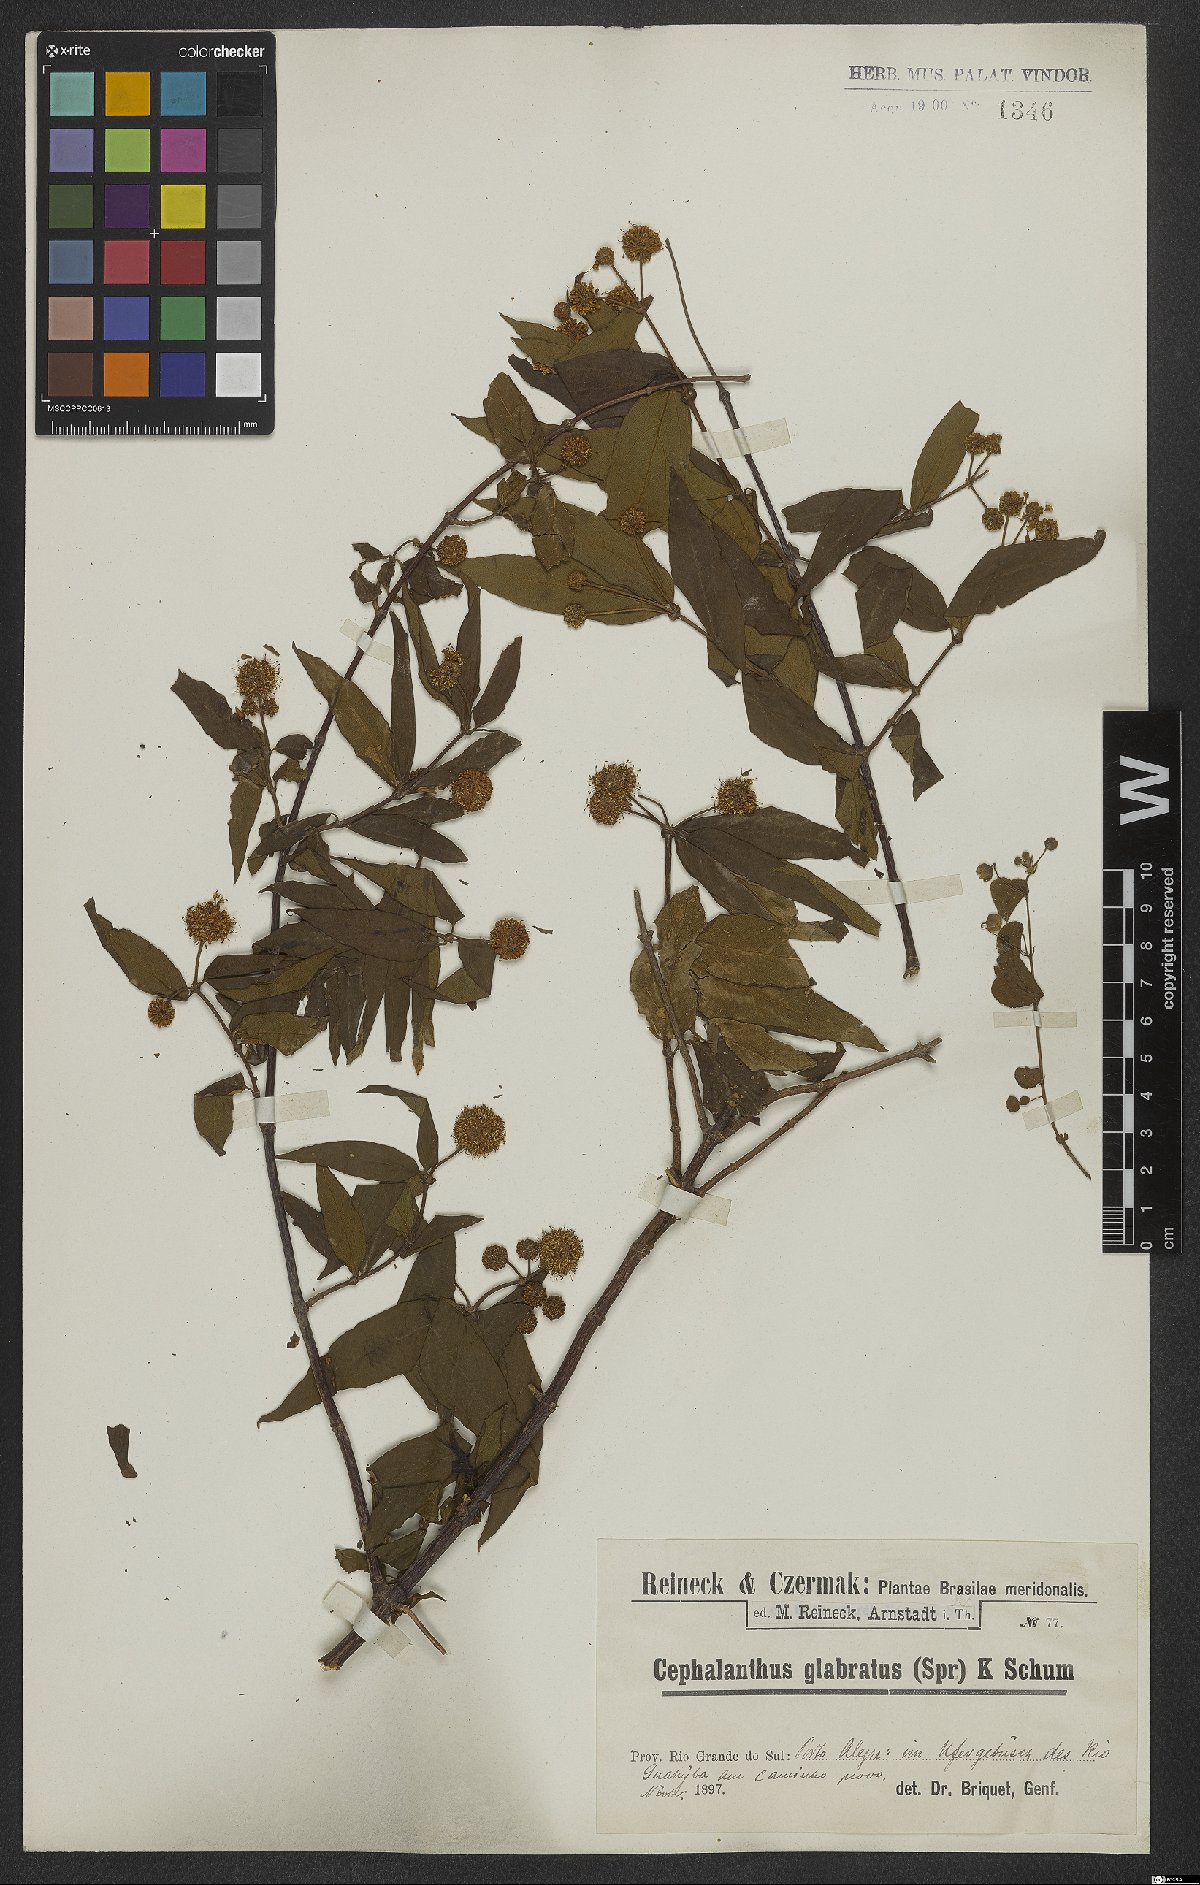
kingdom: Plantae
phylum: Tracheophyta
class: Magnoliopsida
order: Gentianales
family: Rubiaceae
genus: Cephalanthus
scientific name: Cephalanthus glabratus
